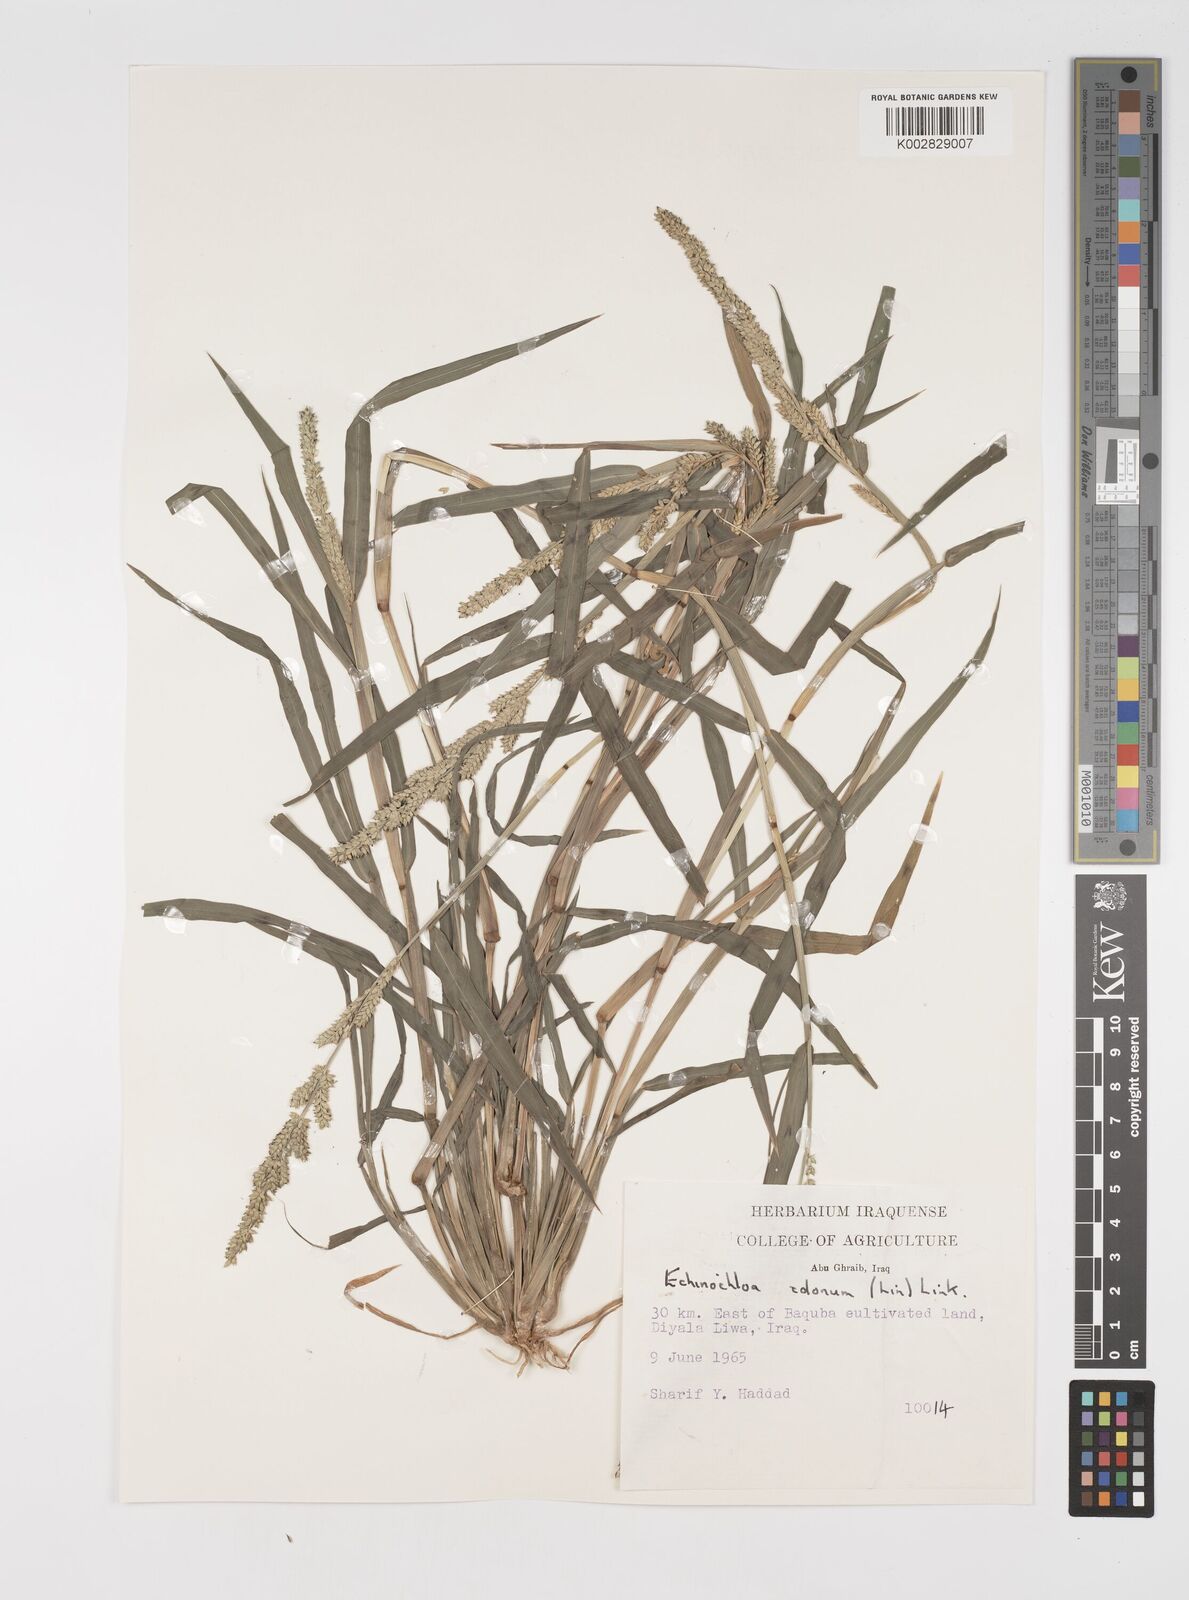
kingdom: Plantae
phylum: Tracheophyta
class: Liliopsida
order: Poales
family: Poaceae
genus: Echinochloa
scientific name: Echinochloa colonum
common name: Jungle rice
